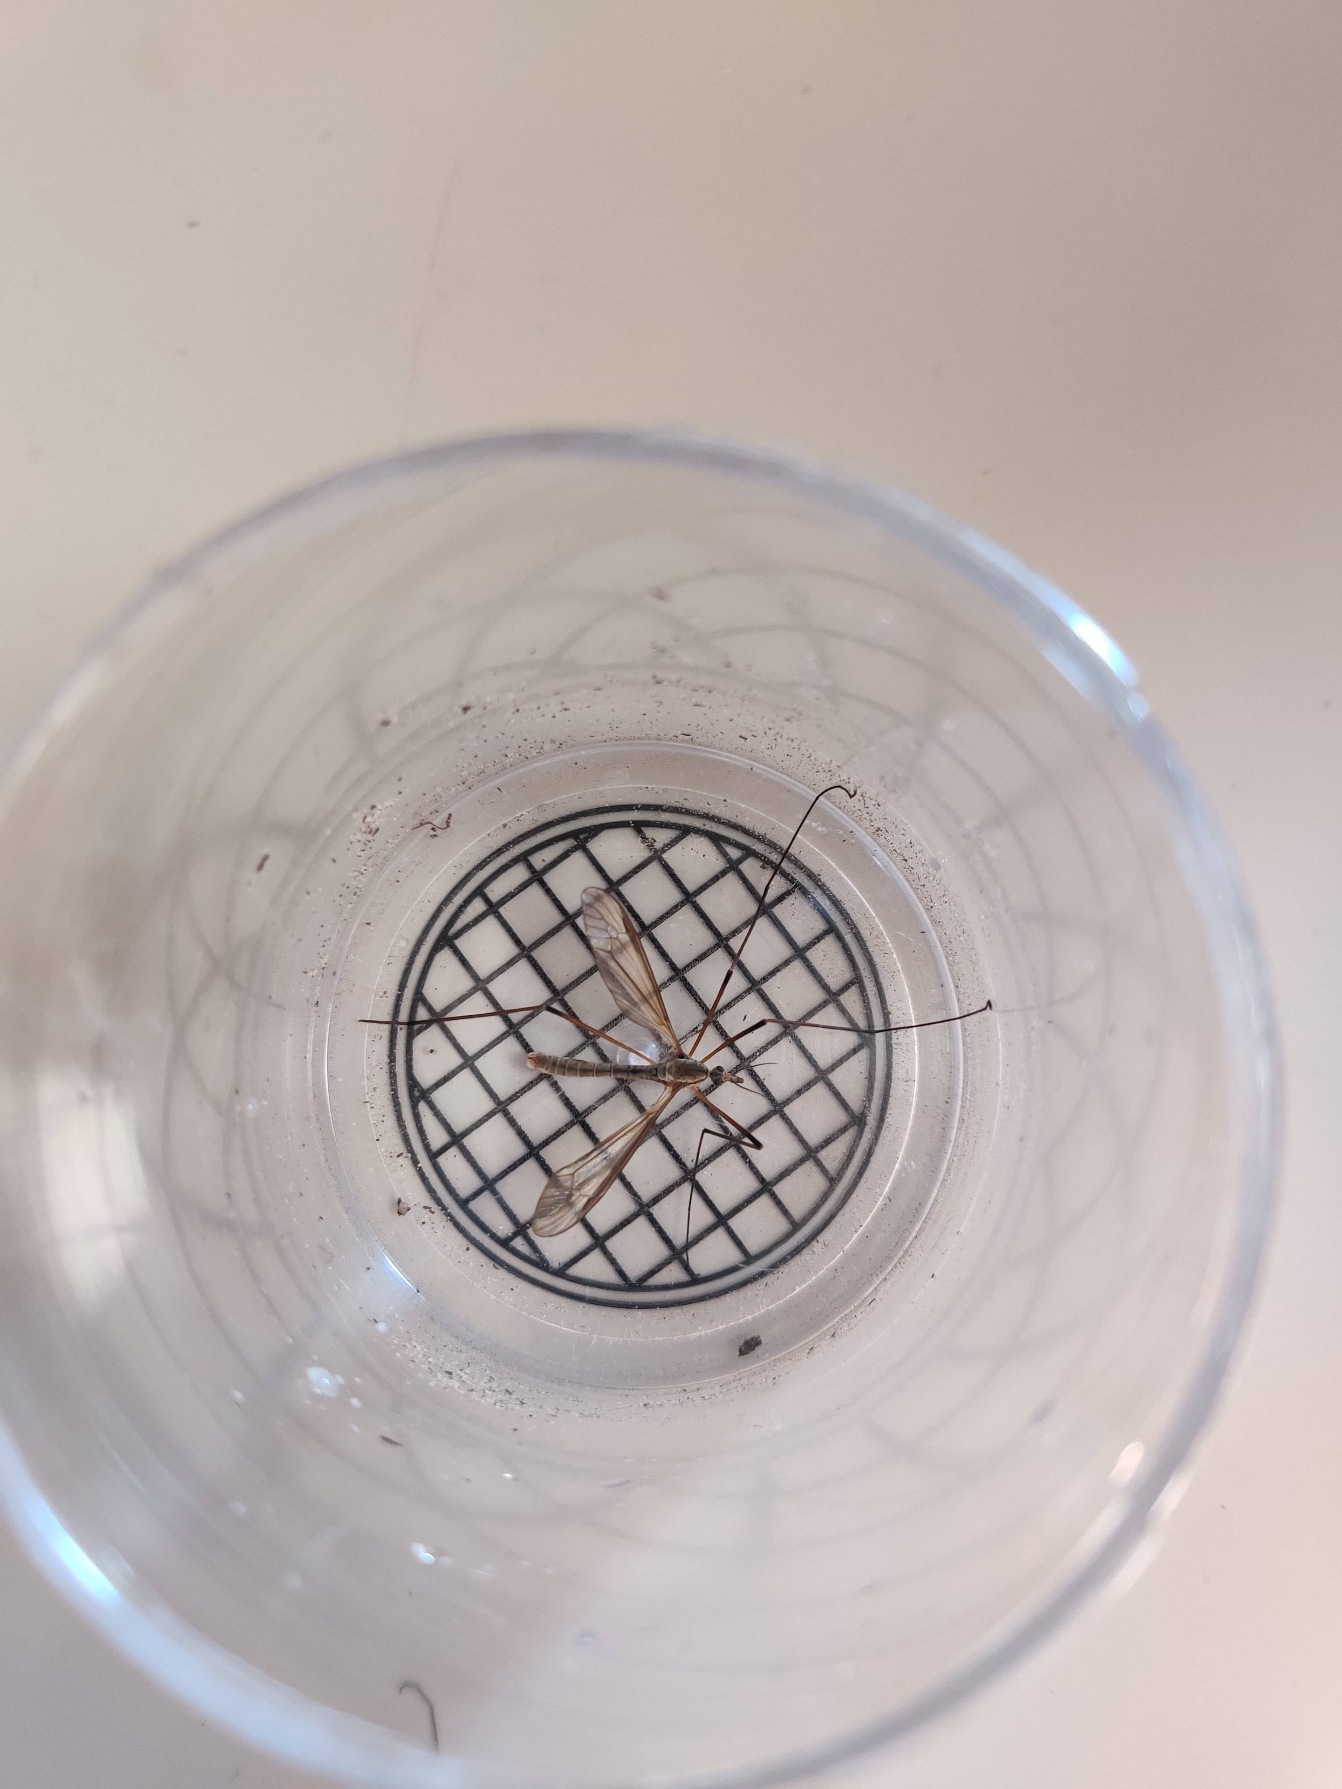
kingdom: Animalia
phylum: Arthropoda
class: Insecta
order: Diptera
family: Tipulidae
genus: Tipula
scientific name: Tipula
